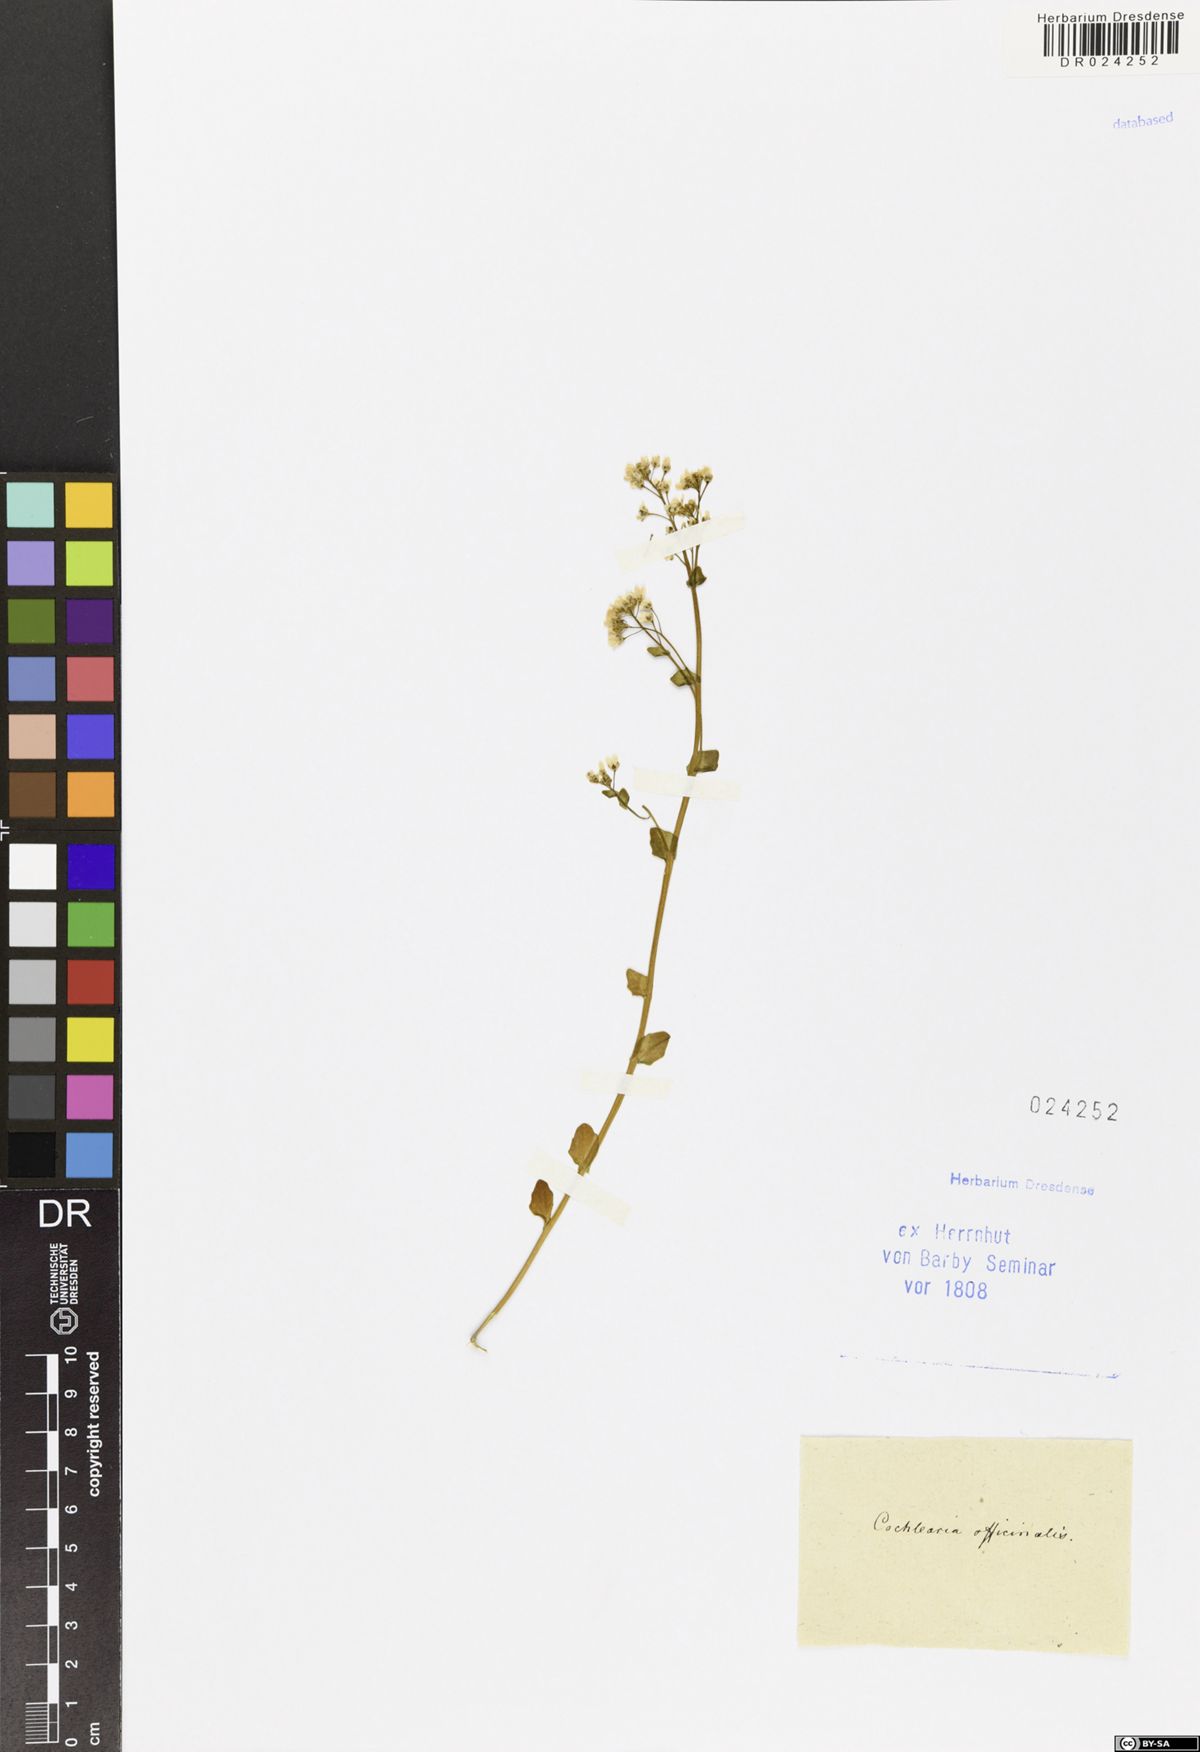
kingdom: Plantae
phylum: Tracheophyta
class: Magnoliopsida
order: Brassicales
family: Brassicaceae
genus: Cochlearia
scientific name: Cochlearia officinalis
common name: Scurvy-grass
